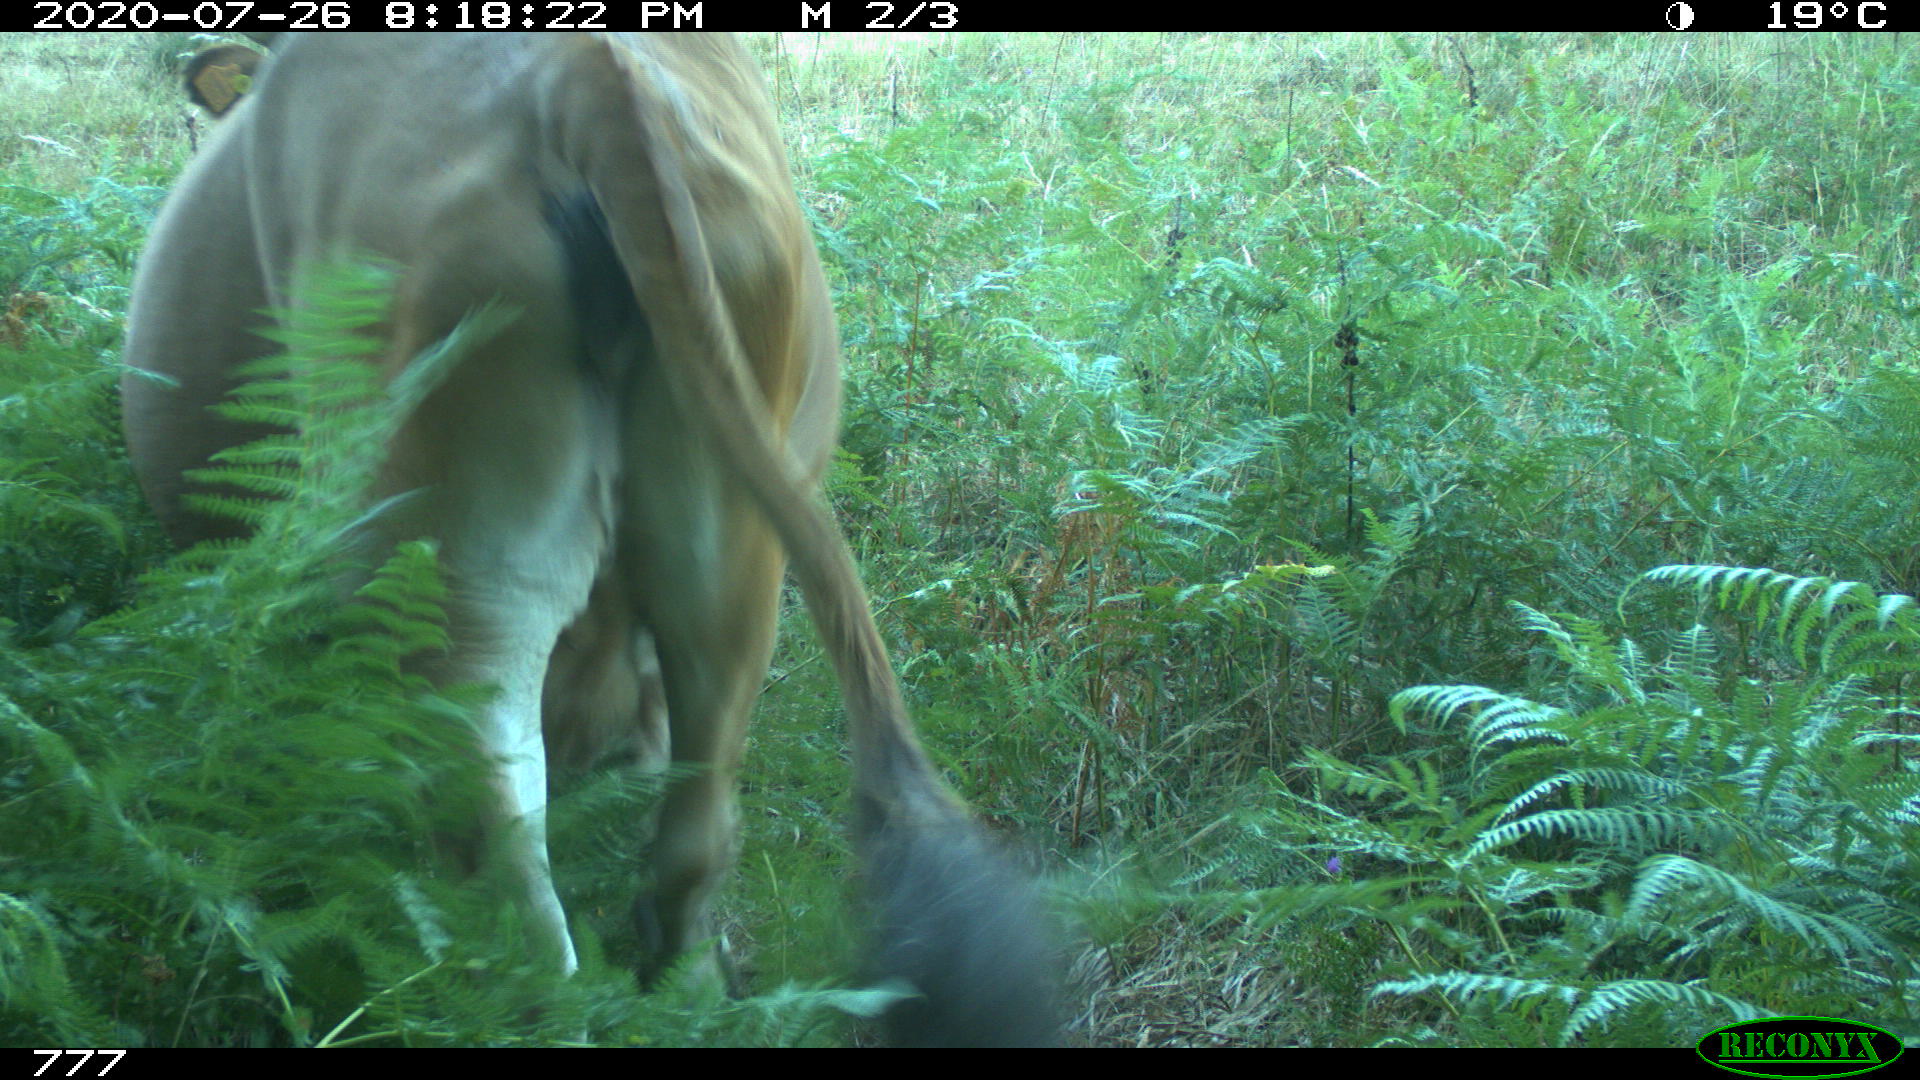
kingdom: Animalia
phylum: Chordata
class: Mammalia
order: Artiodactyla
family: Bovidae
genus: Bos
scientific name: Bos taurus
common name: Domesticated cattle
